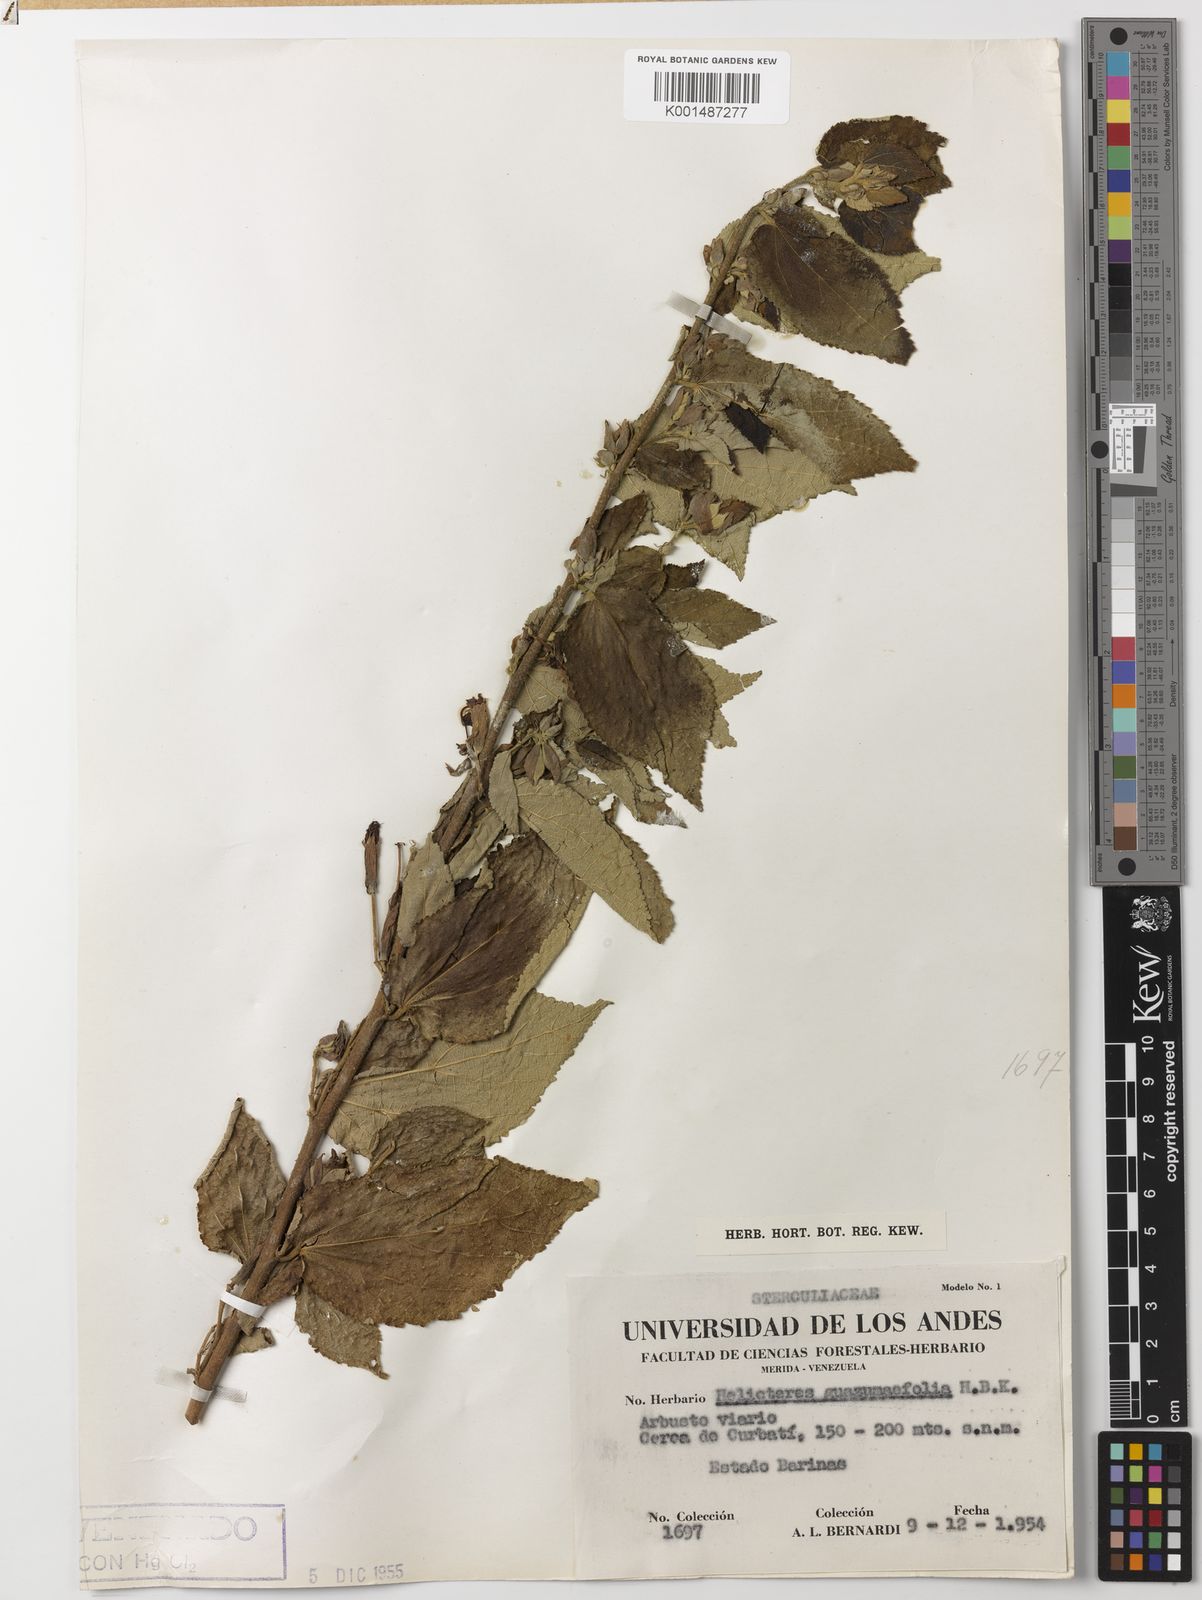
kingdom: Plantae
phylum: Tracheophyta
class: Magnoliopsida
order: Malvales
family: Malvaceae
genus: Helicteres
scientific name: Helicteres guazumifolia
